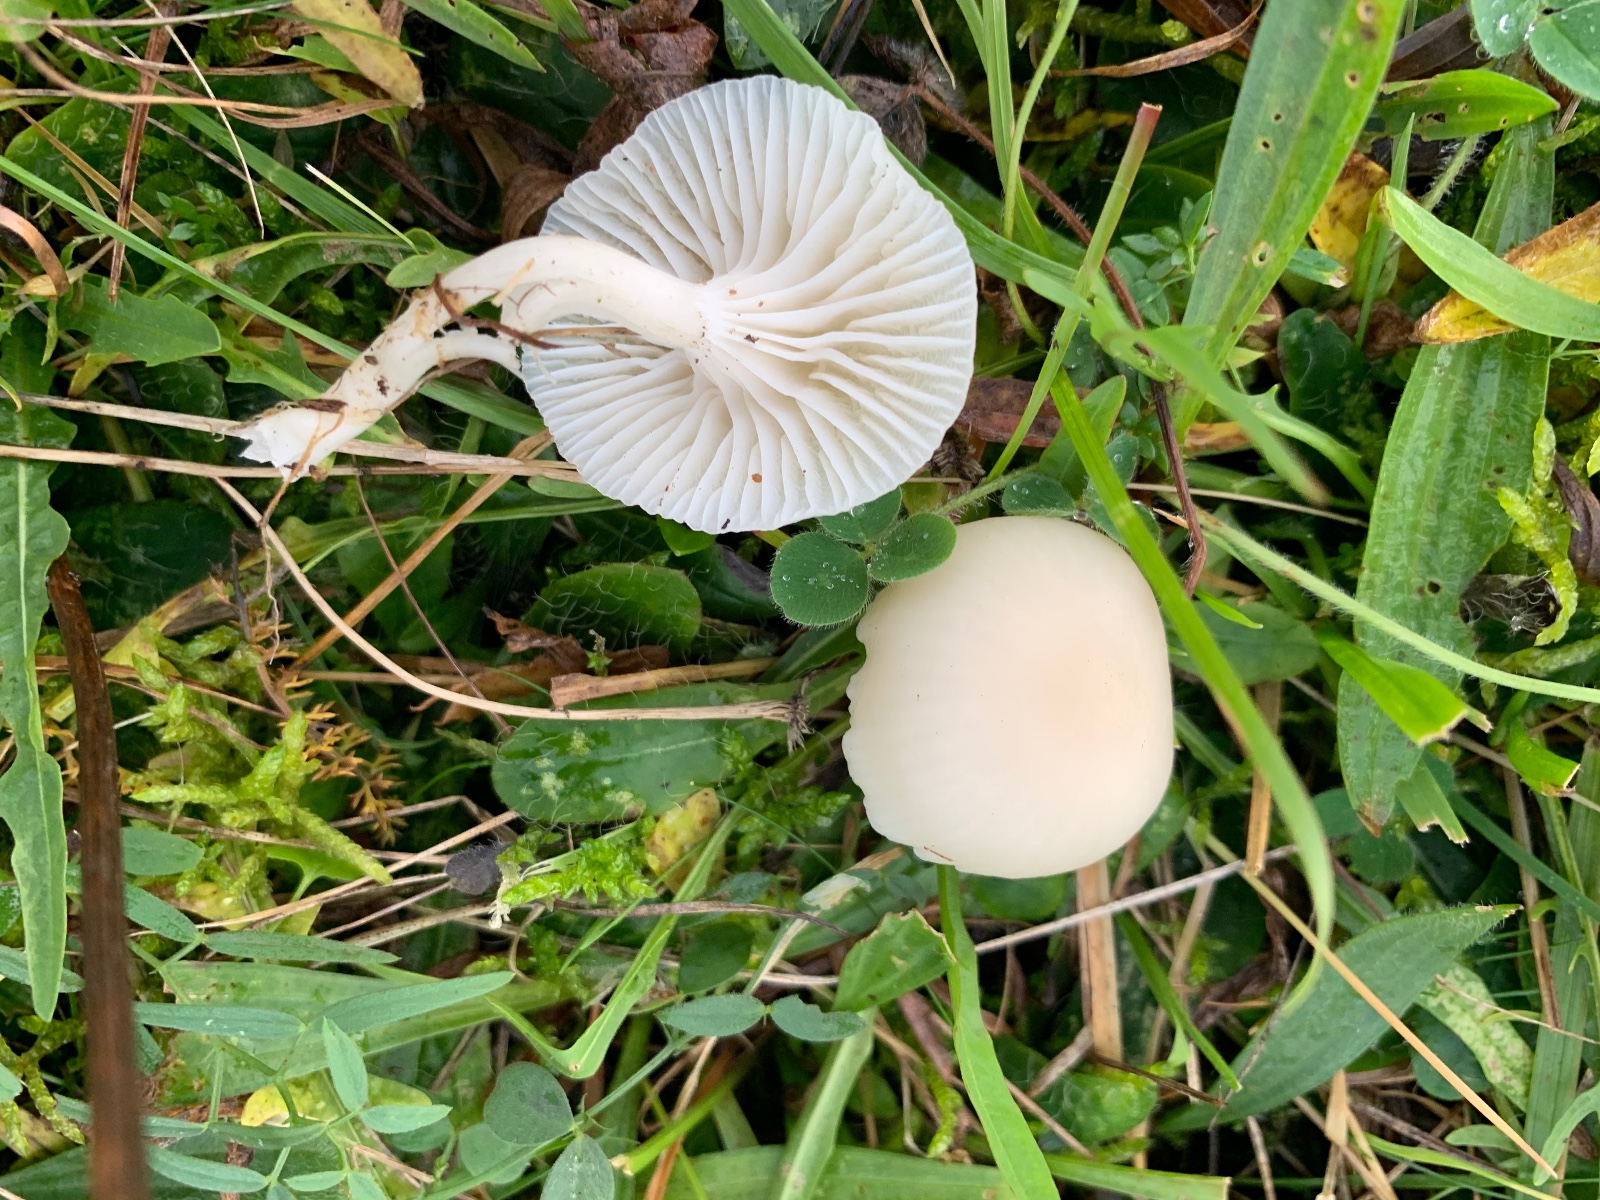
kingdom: Fungi
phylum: Basidiomycota
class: Agaricomycetes
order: Agaricales
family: Hygrophoraceae
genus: Cuphophyllus
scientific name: Cuphophyllus
